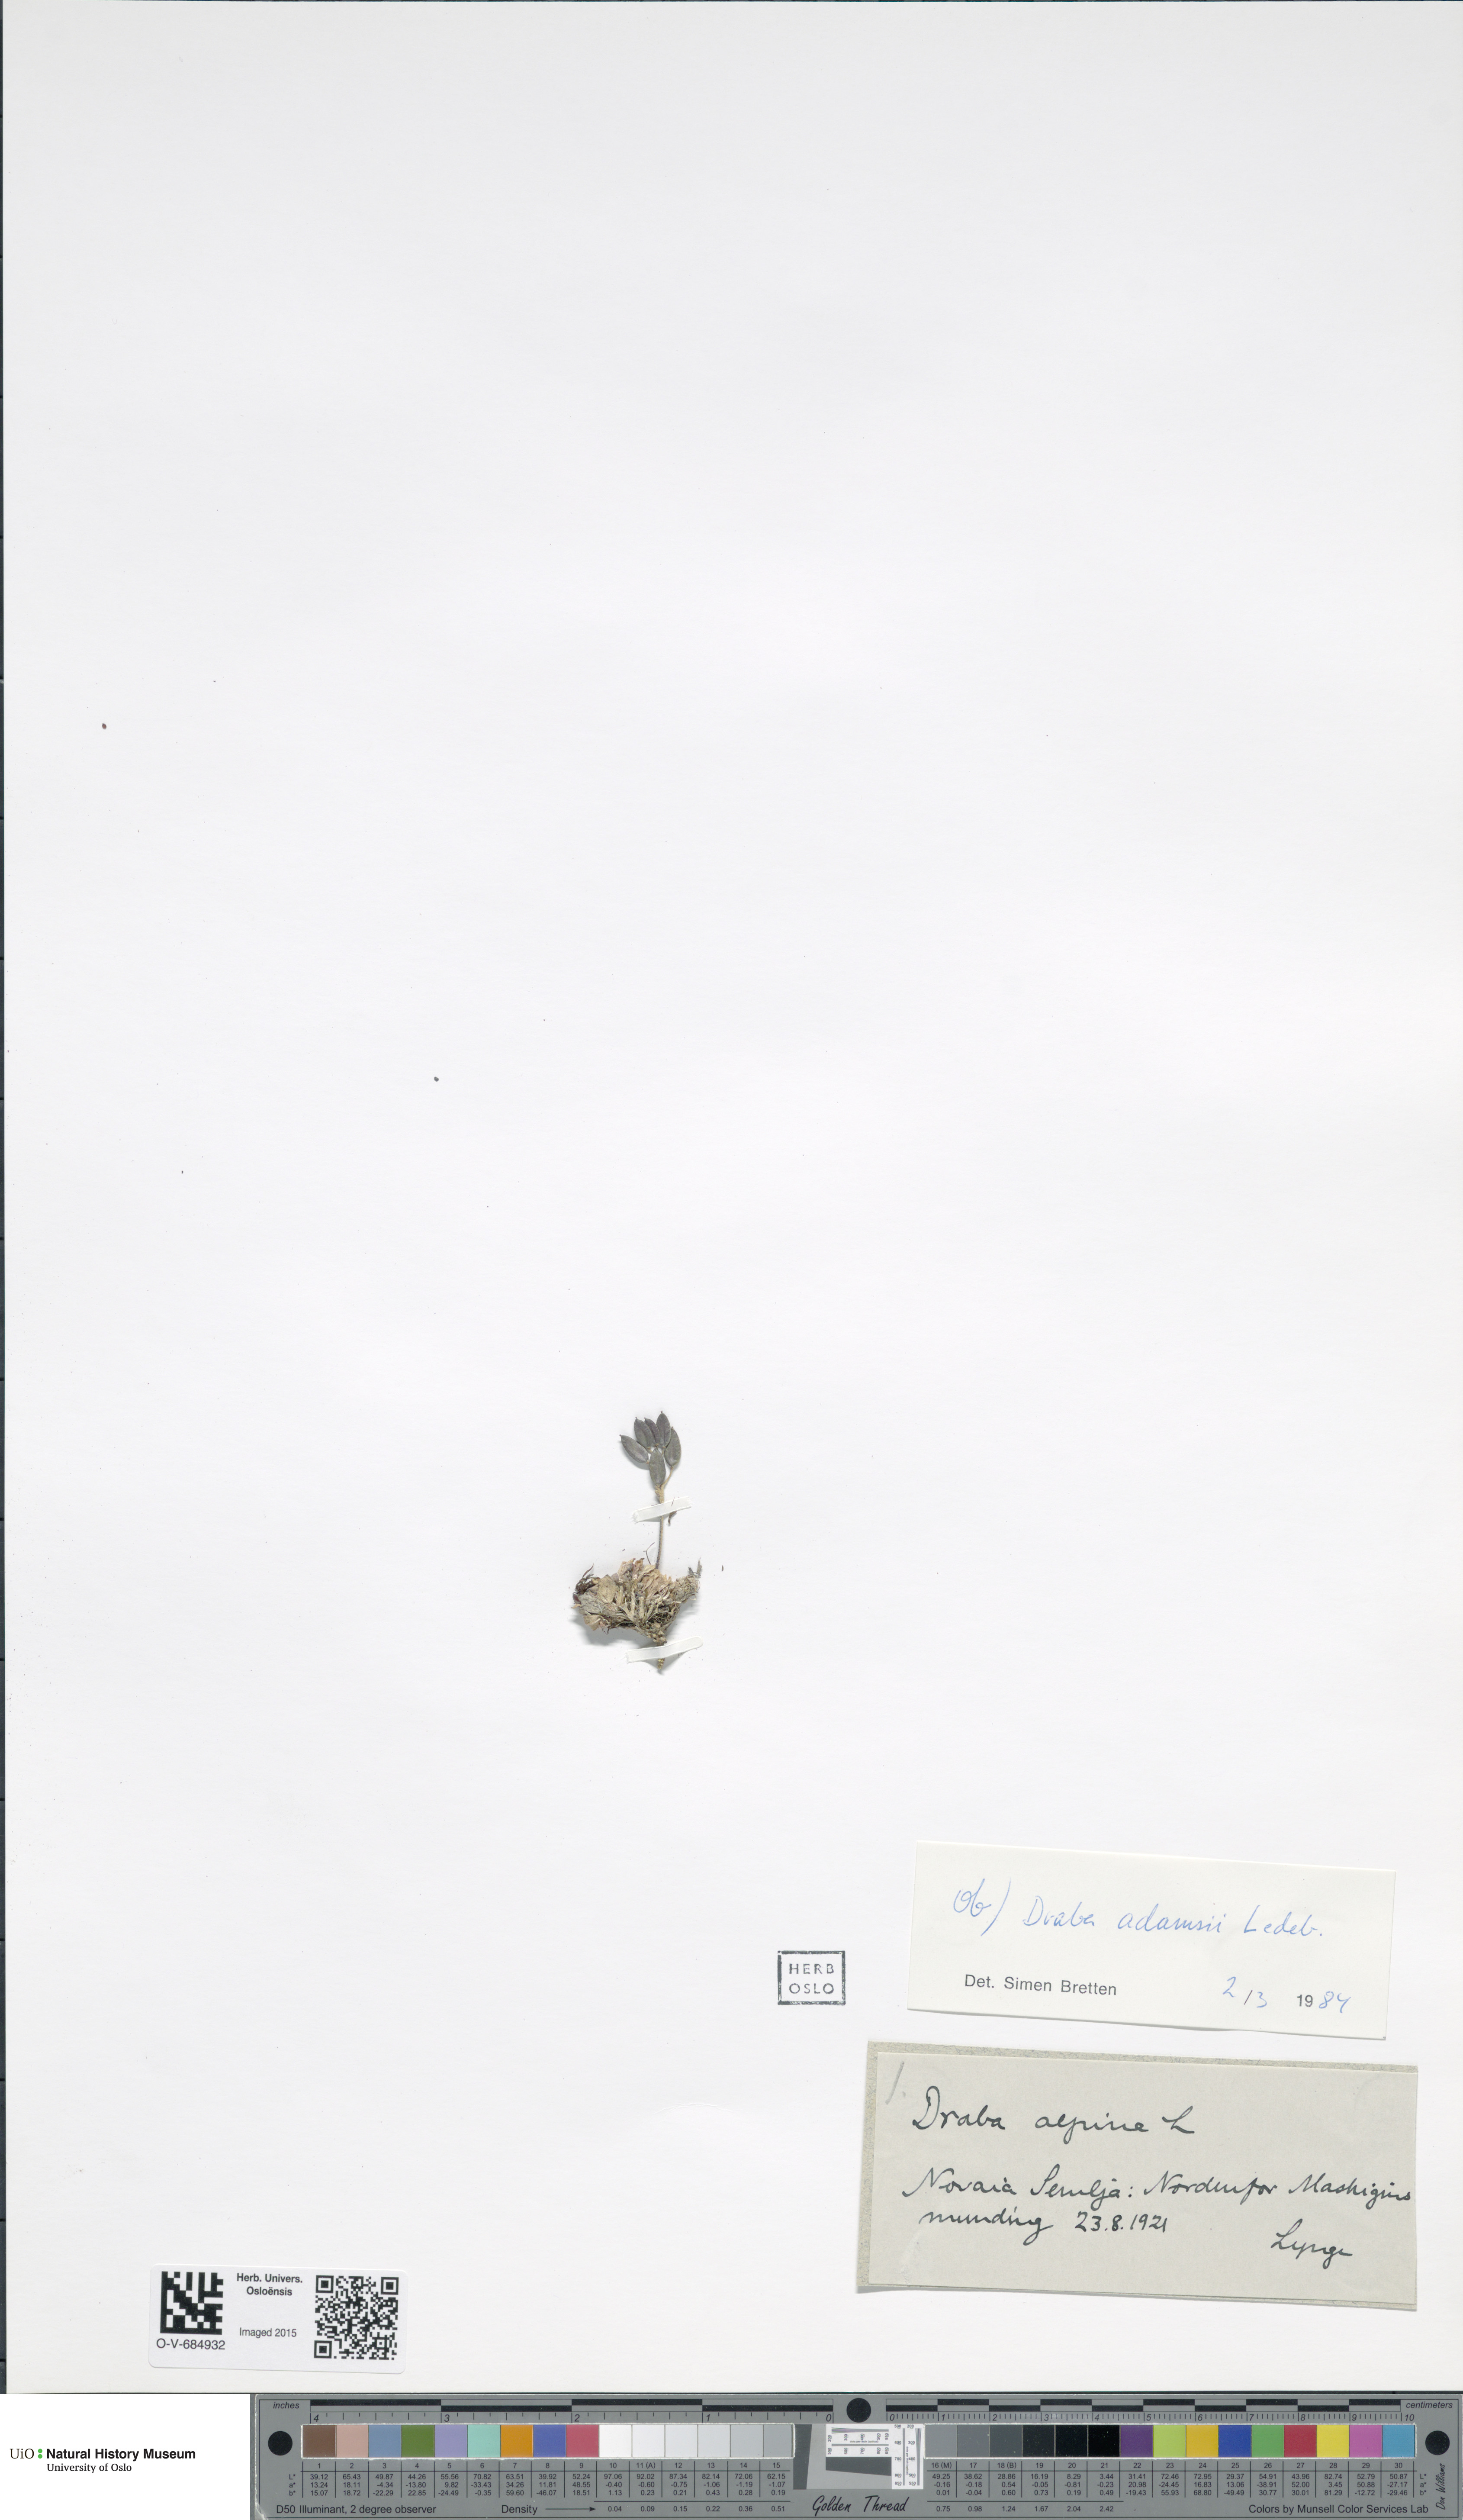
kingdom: Plantae
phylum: Tracheophyta
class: Magnoliopsida
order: Brassicales
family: Brassicaceae
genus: Draba
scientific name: Draba pauciflora
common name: Few-flowered draba
